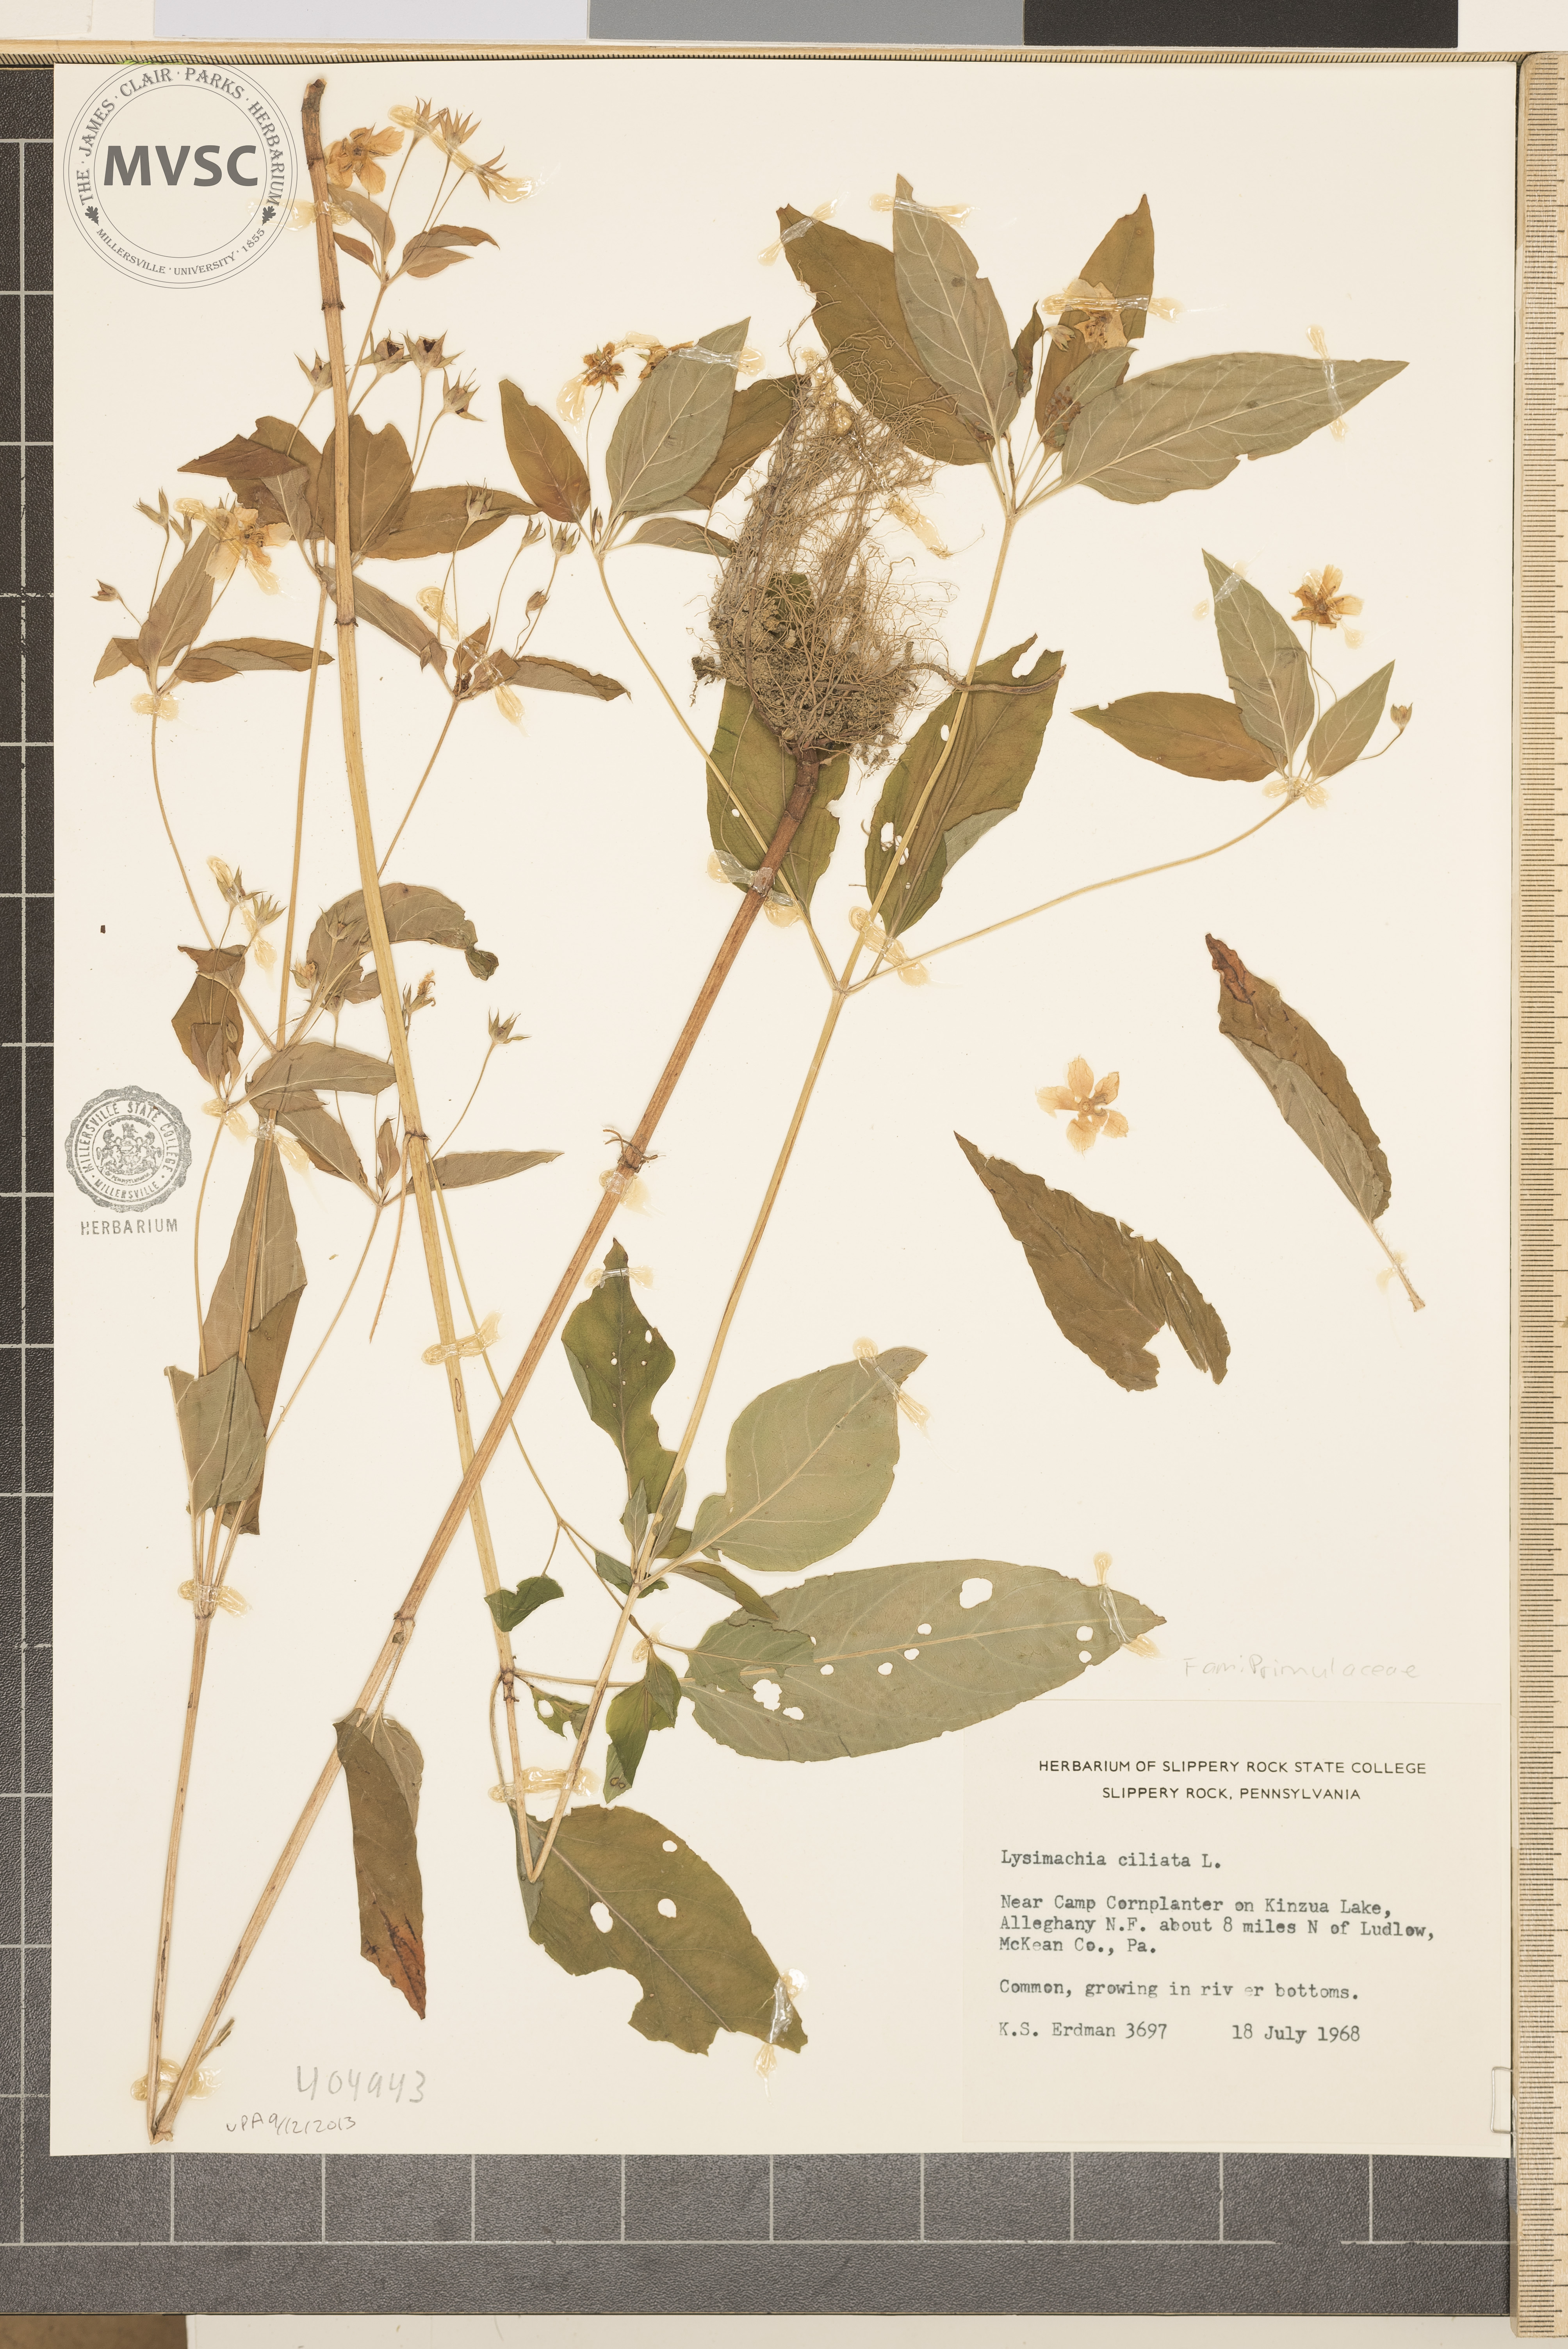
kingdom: Plantae
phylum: Tracheophyta
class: Magnoliopsida
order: Ericales
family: Primulaceae
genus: Lysimachia
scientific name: Lysimachia ciliata
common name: Fringed loosestrife
